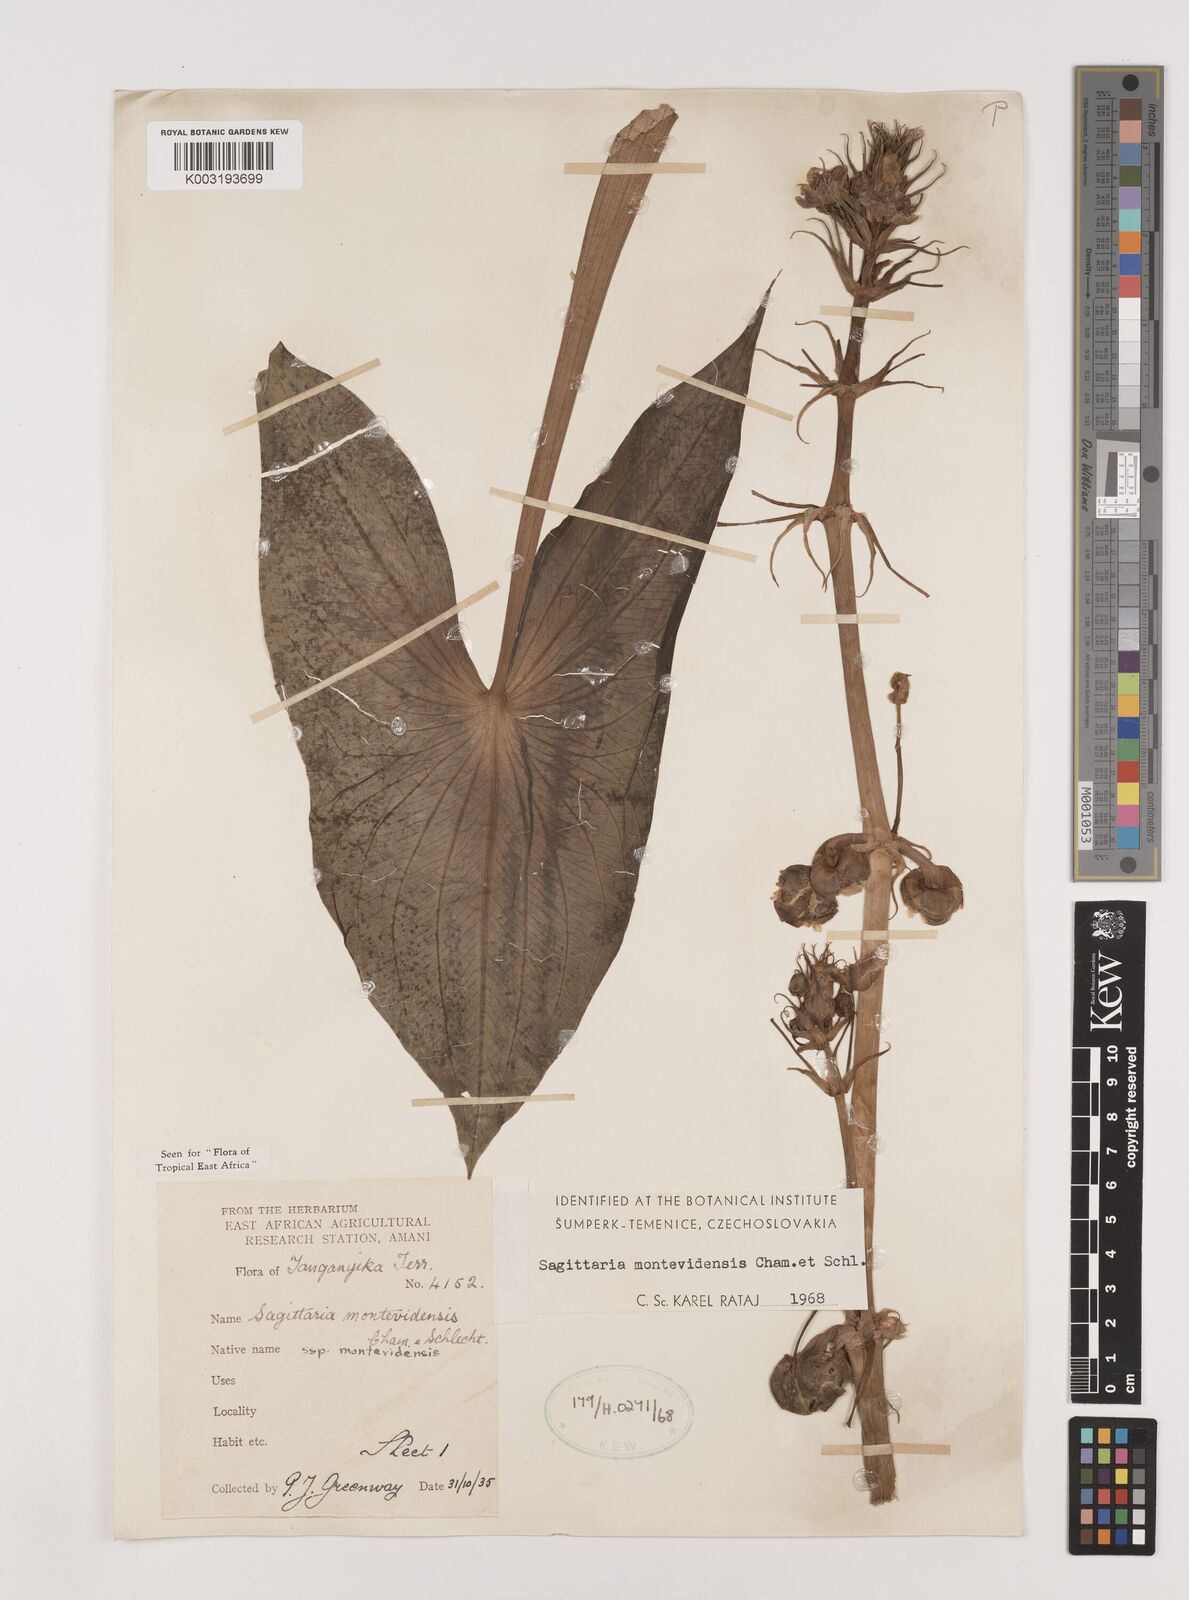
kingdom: Plantae
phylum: Tracheophyta
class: Liliopsida
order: Alismatales
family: Alismataceae
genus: Sagittaria
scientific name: Sagittaria montevidensis
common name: Giant arrowhead
